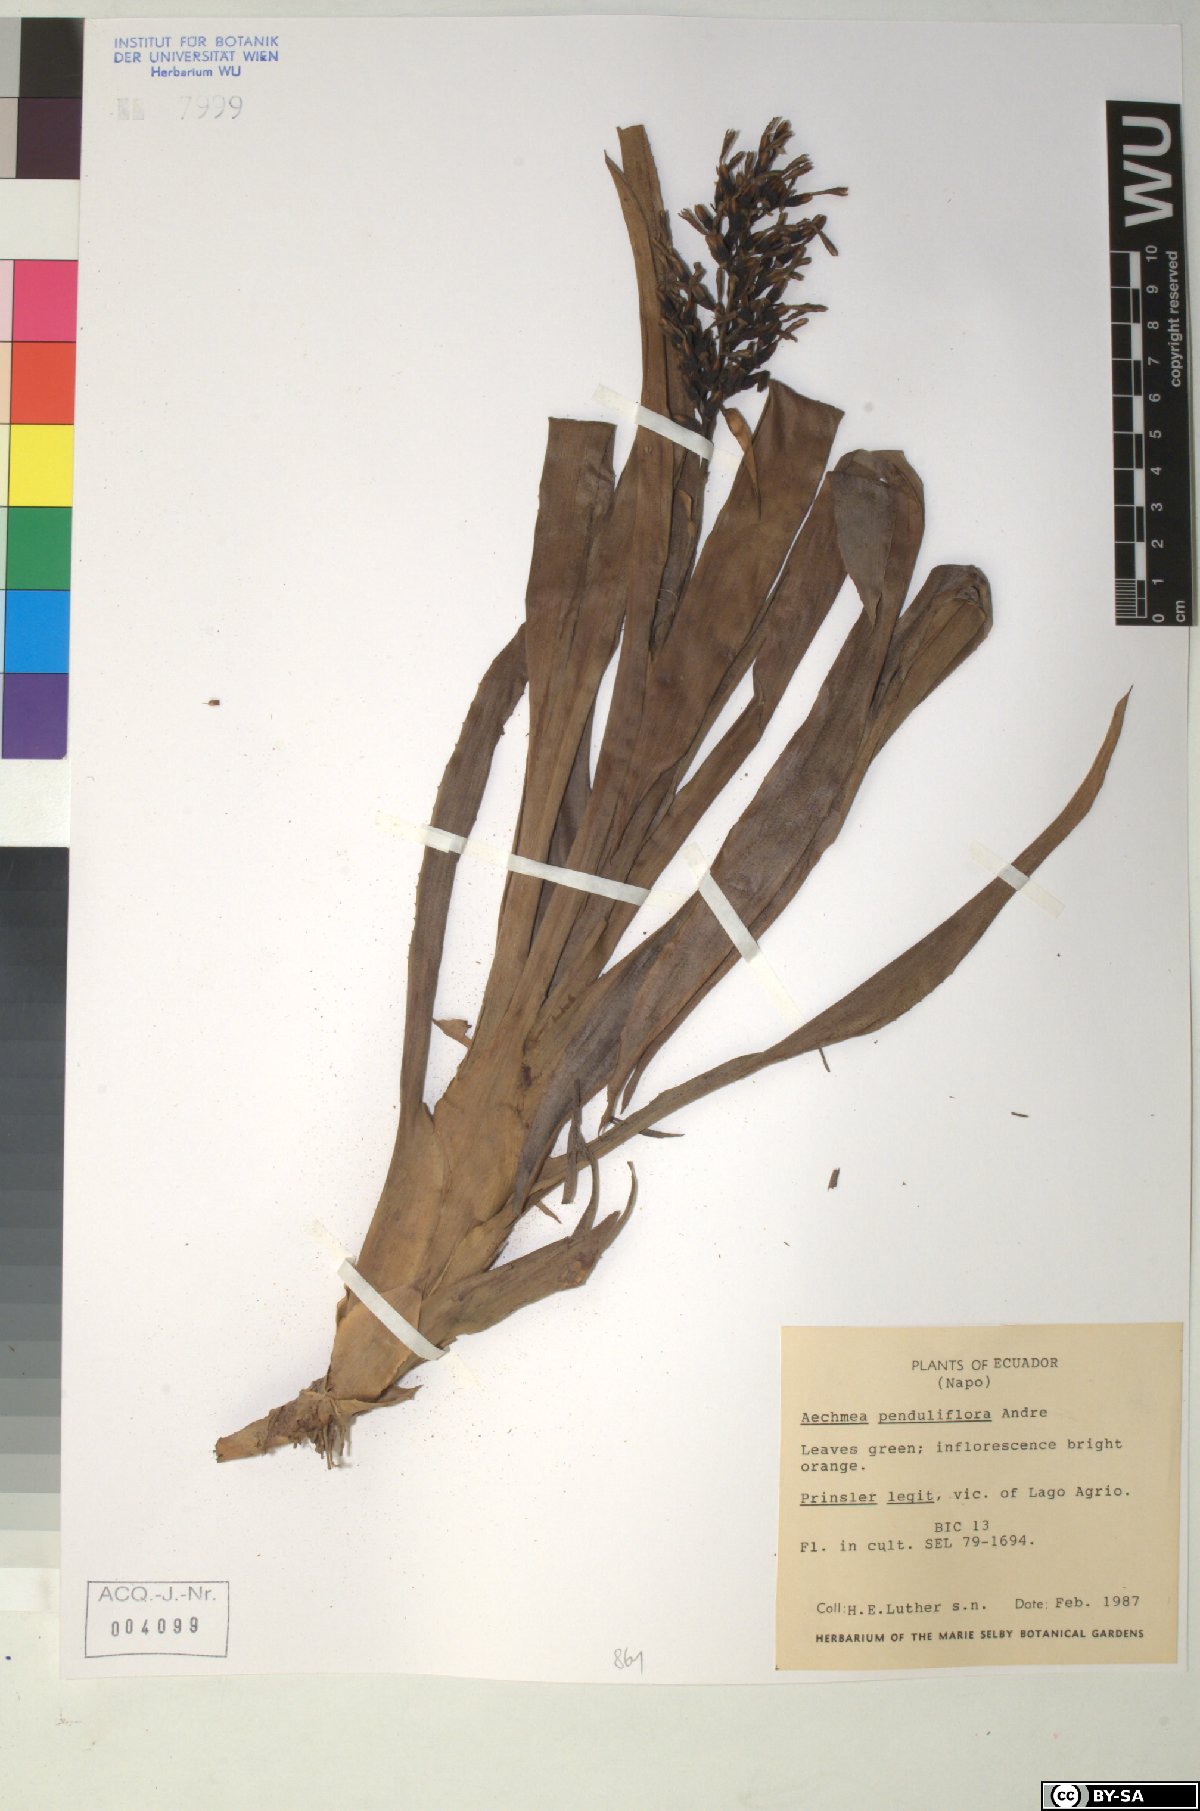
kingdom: Plantae
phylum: Tracheophyta
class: Liliopsida
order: Poales
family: Bromeliaceae
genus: Aechmea
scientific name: Aechmea penduliflora
